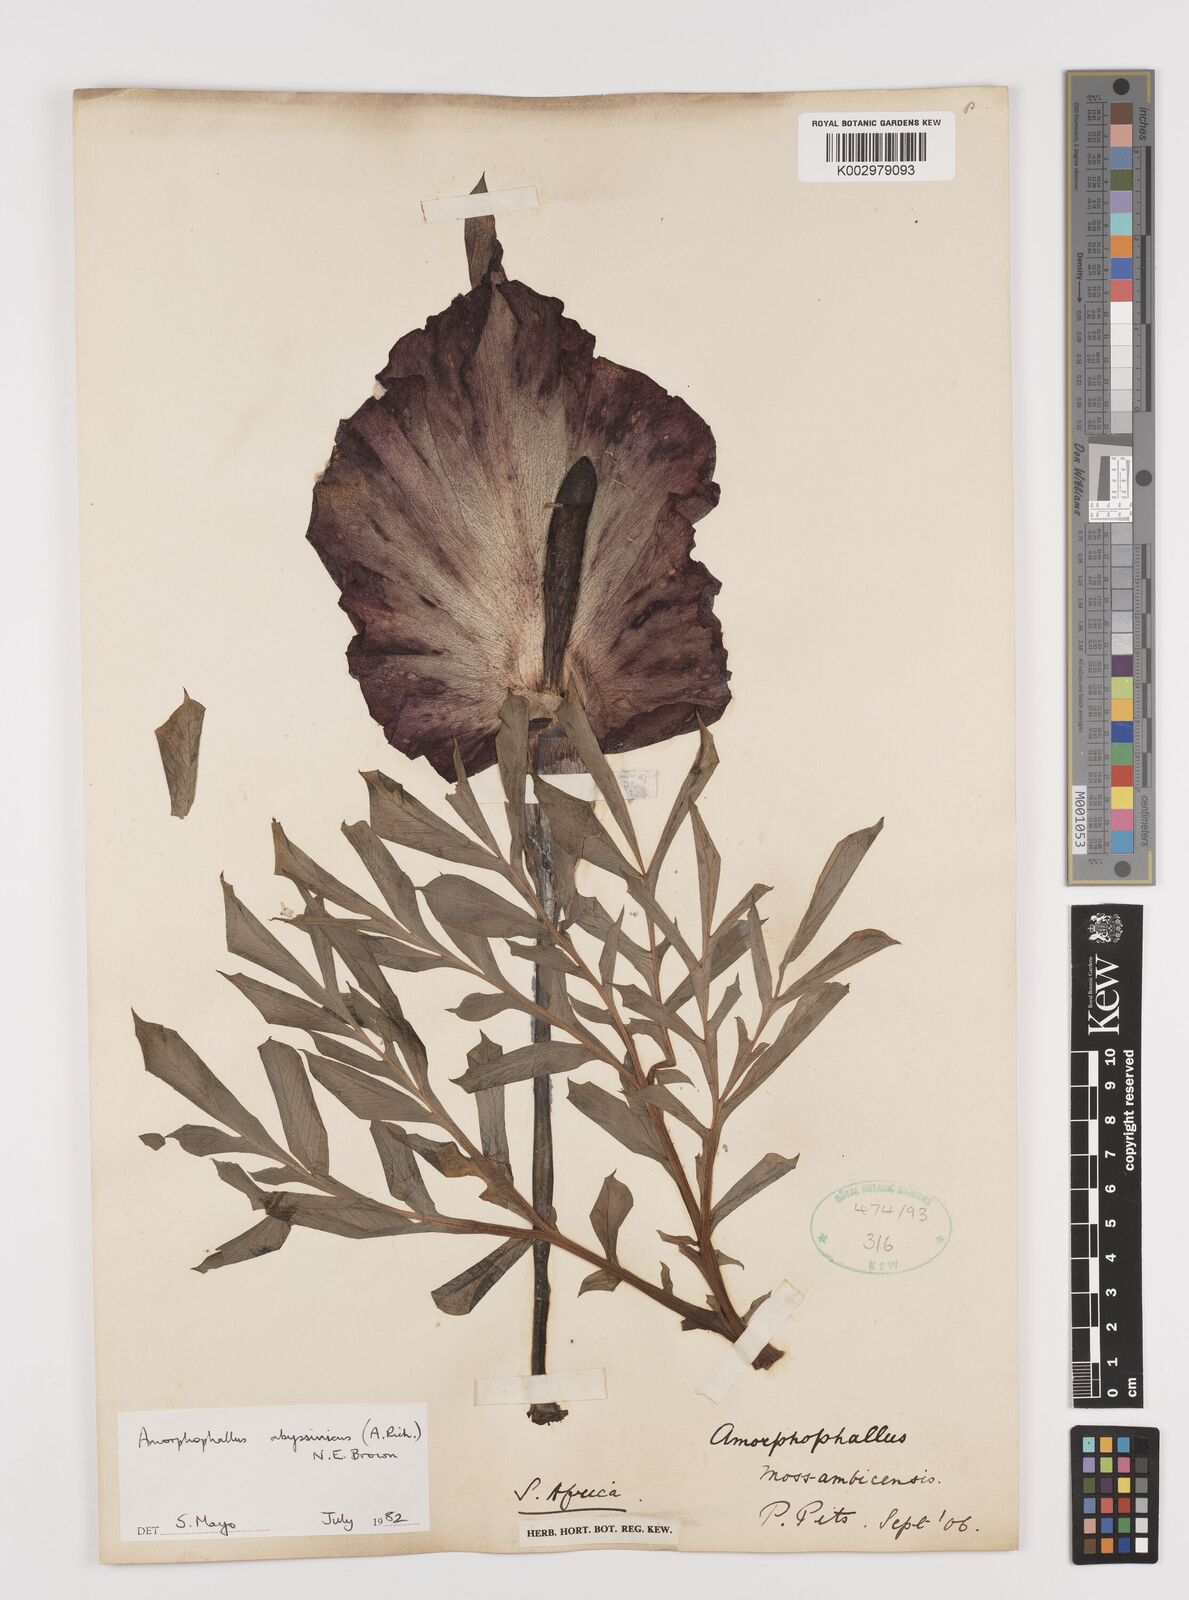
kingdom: Plantae
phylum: Tracheophyta
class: Liliopsida
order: Alismatales
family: Araceae
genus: Amorphophallus
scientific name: Amorphophallus abyssinicus
